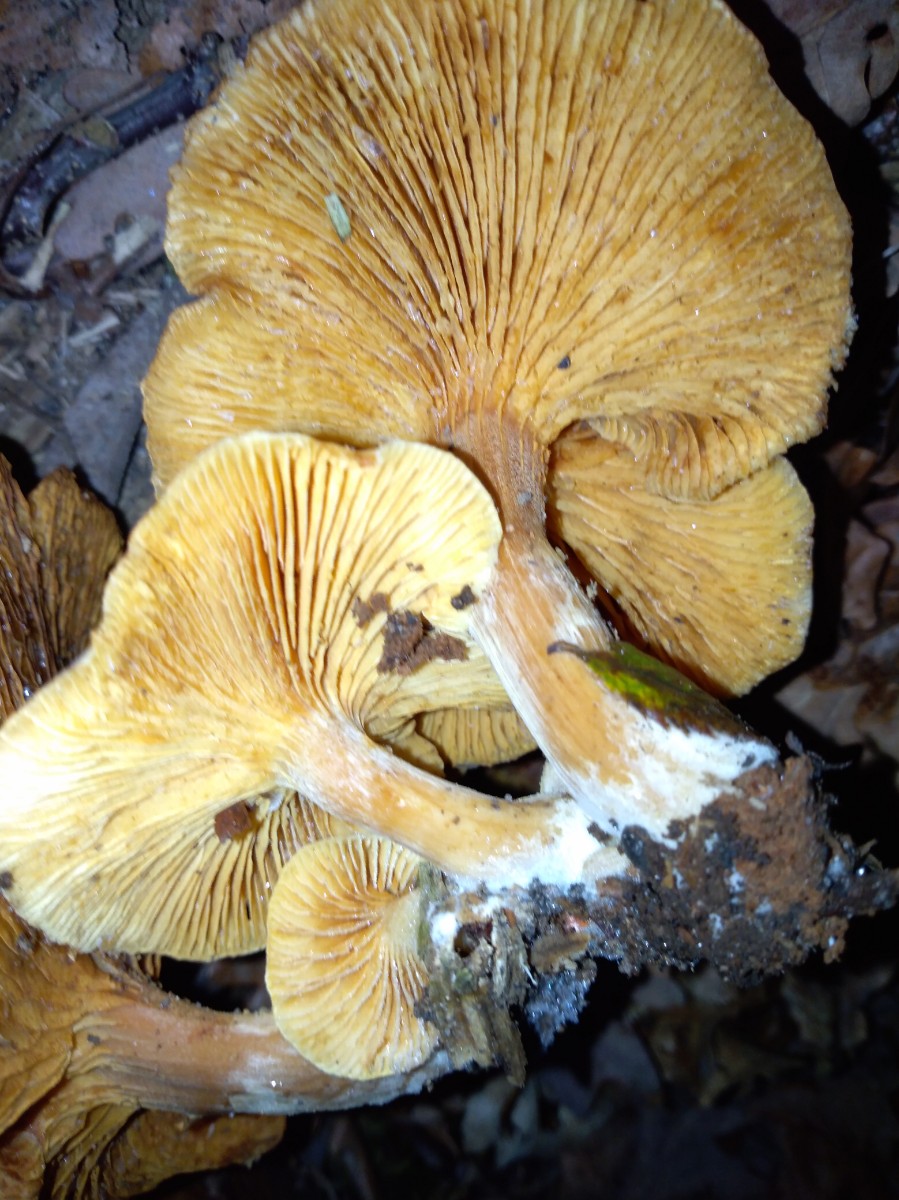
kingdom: Fungi
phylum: Basidiomycota
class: Agaricomycetes
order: Agaricales
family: Hymenogastraceae
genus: Gymnopilus
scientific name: Gymnopilus
